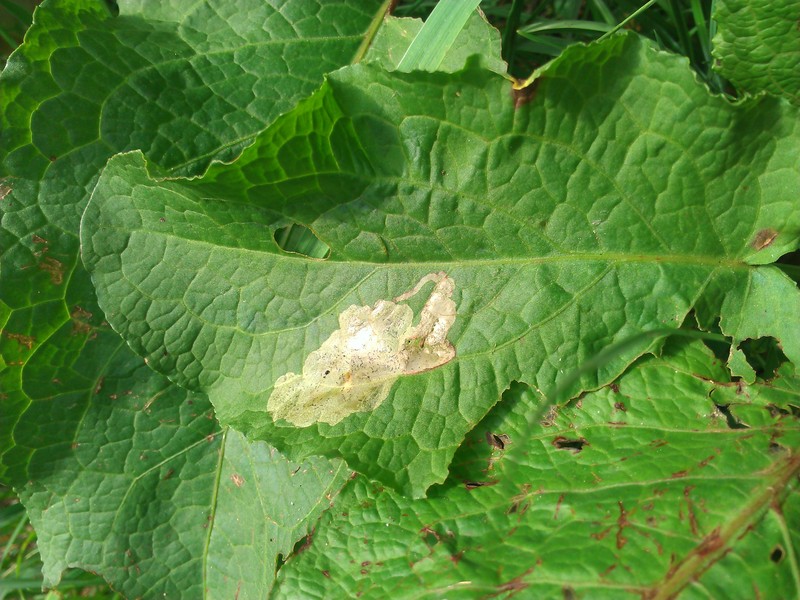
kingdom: Animalia
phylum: Arthropoda
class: Insecta
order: Diptera
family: Anthomyiidae
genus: Pegomya
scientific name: Pegomya
